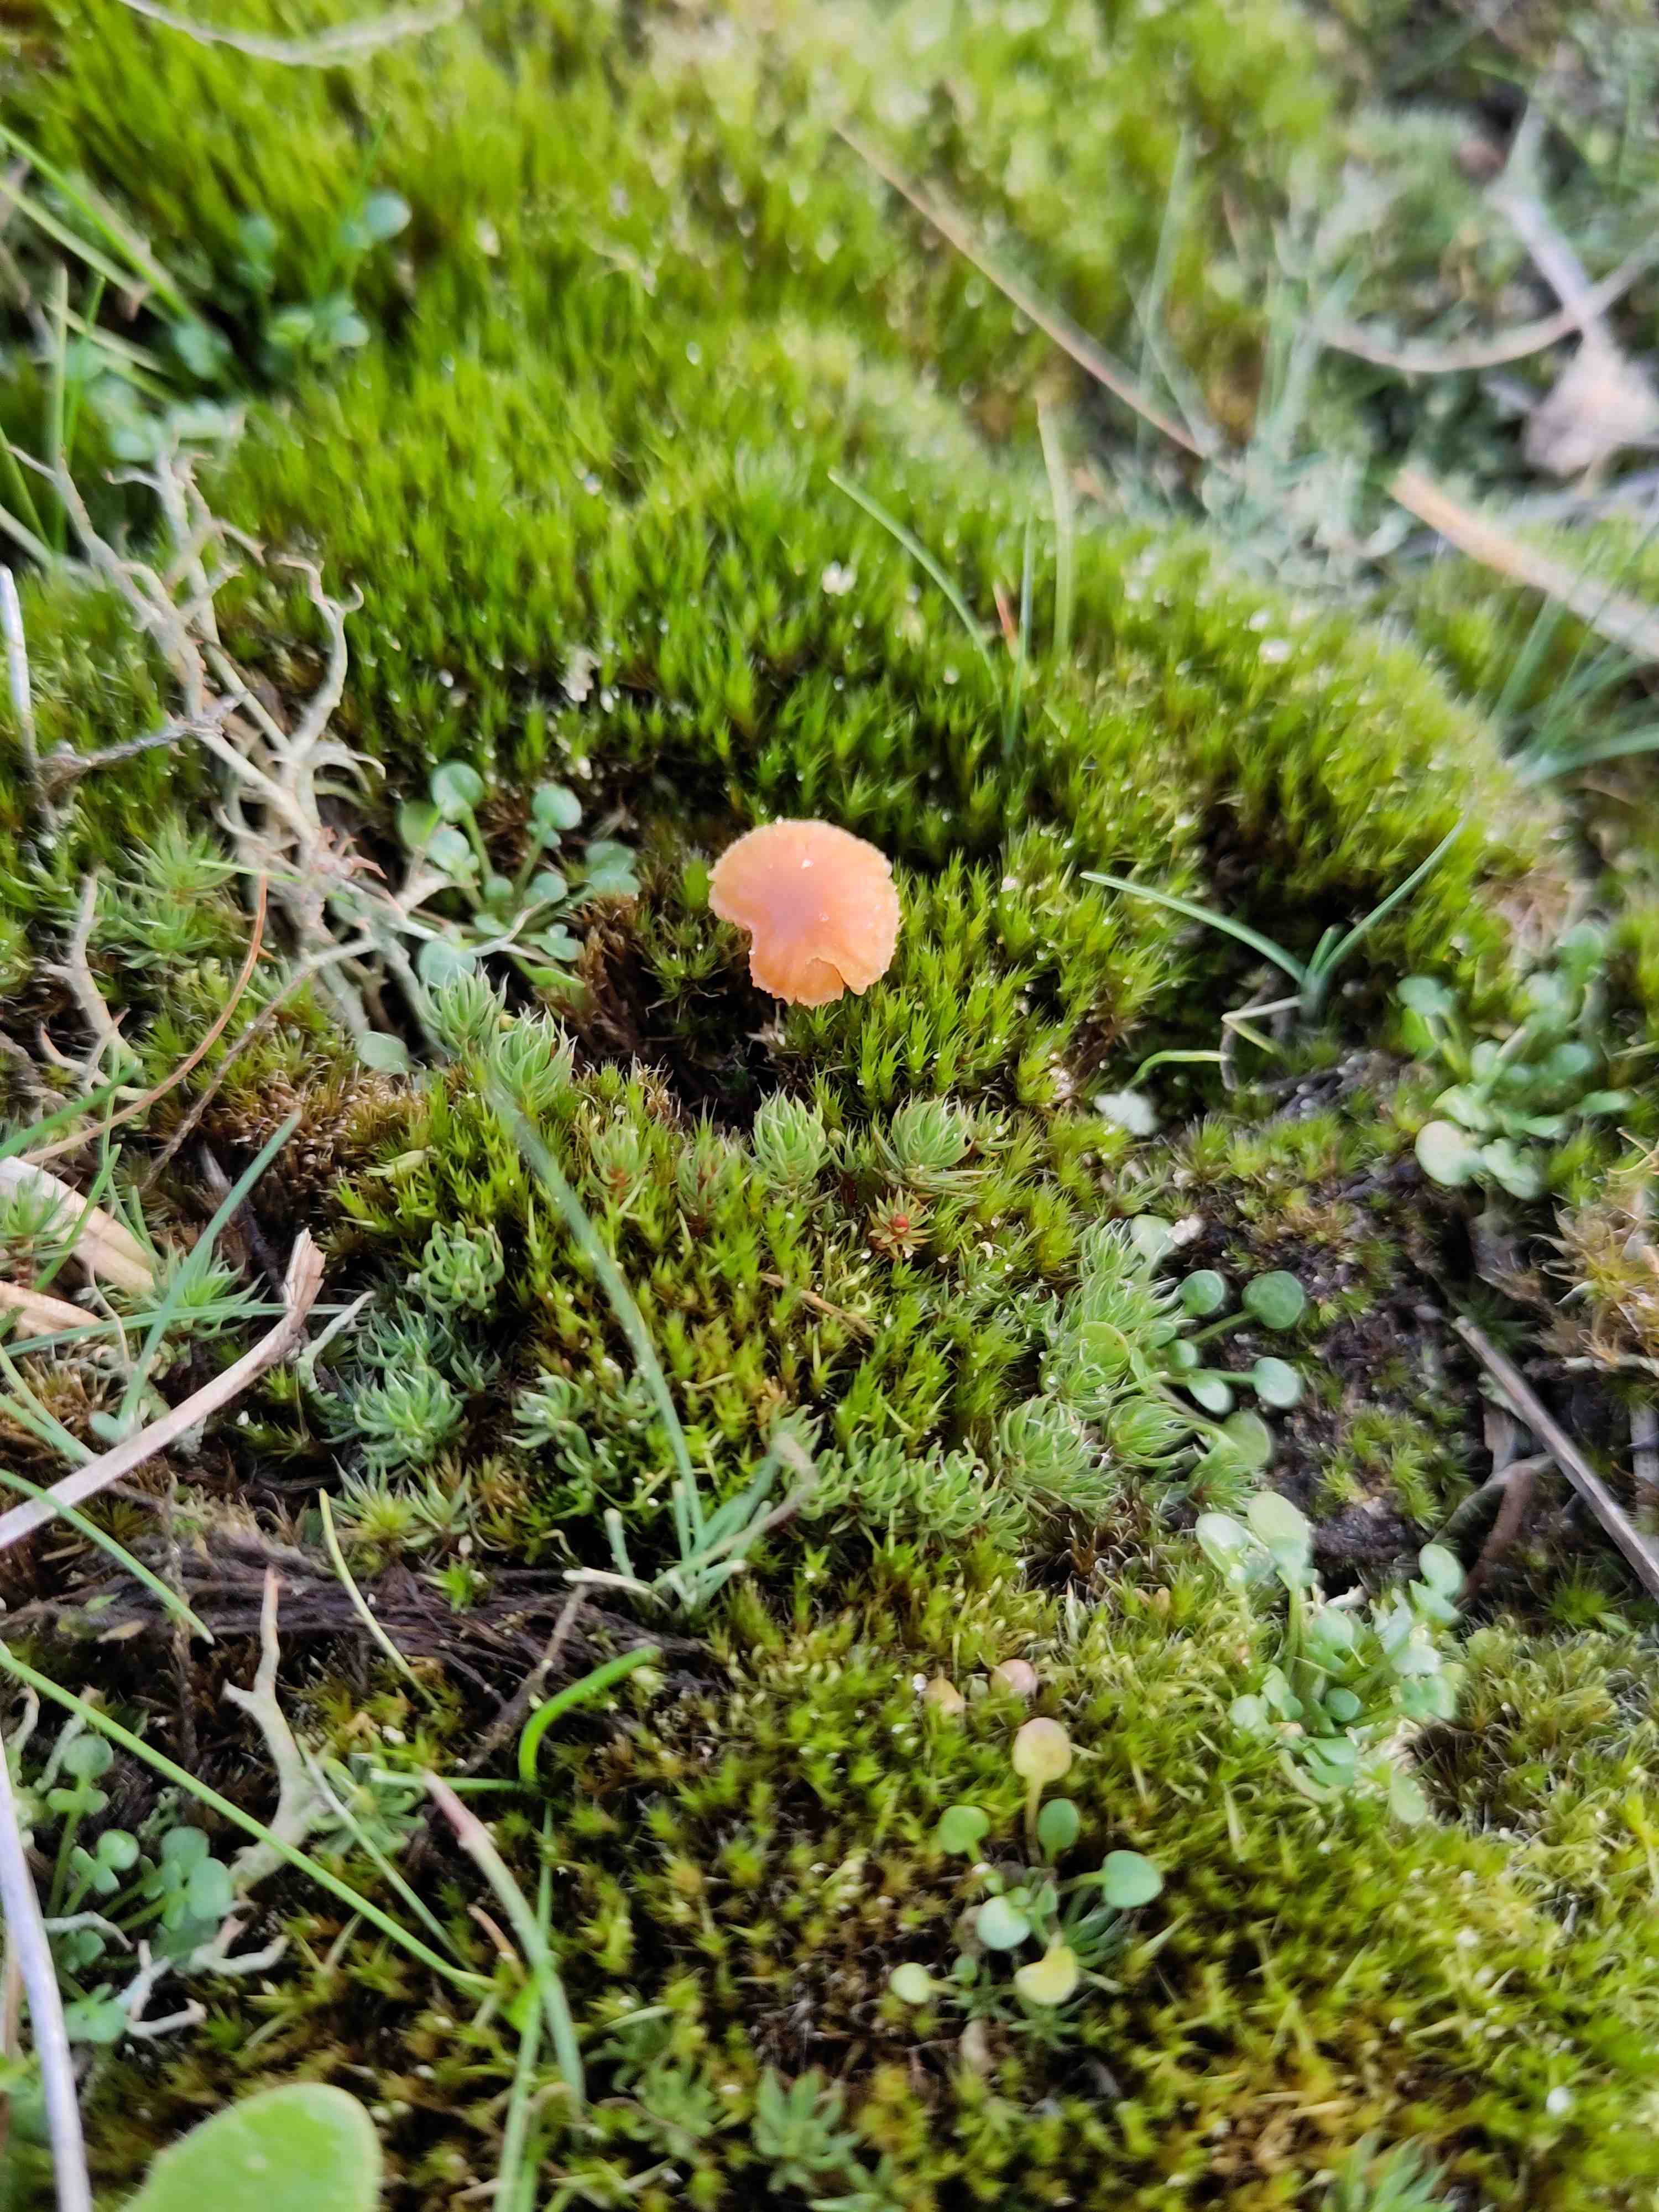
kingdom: Fungi
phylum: Basidiomycota
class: Agaricomycetes
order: Agaricales
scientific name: Agaricales
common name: champignonordenen
